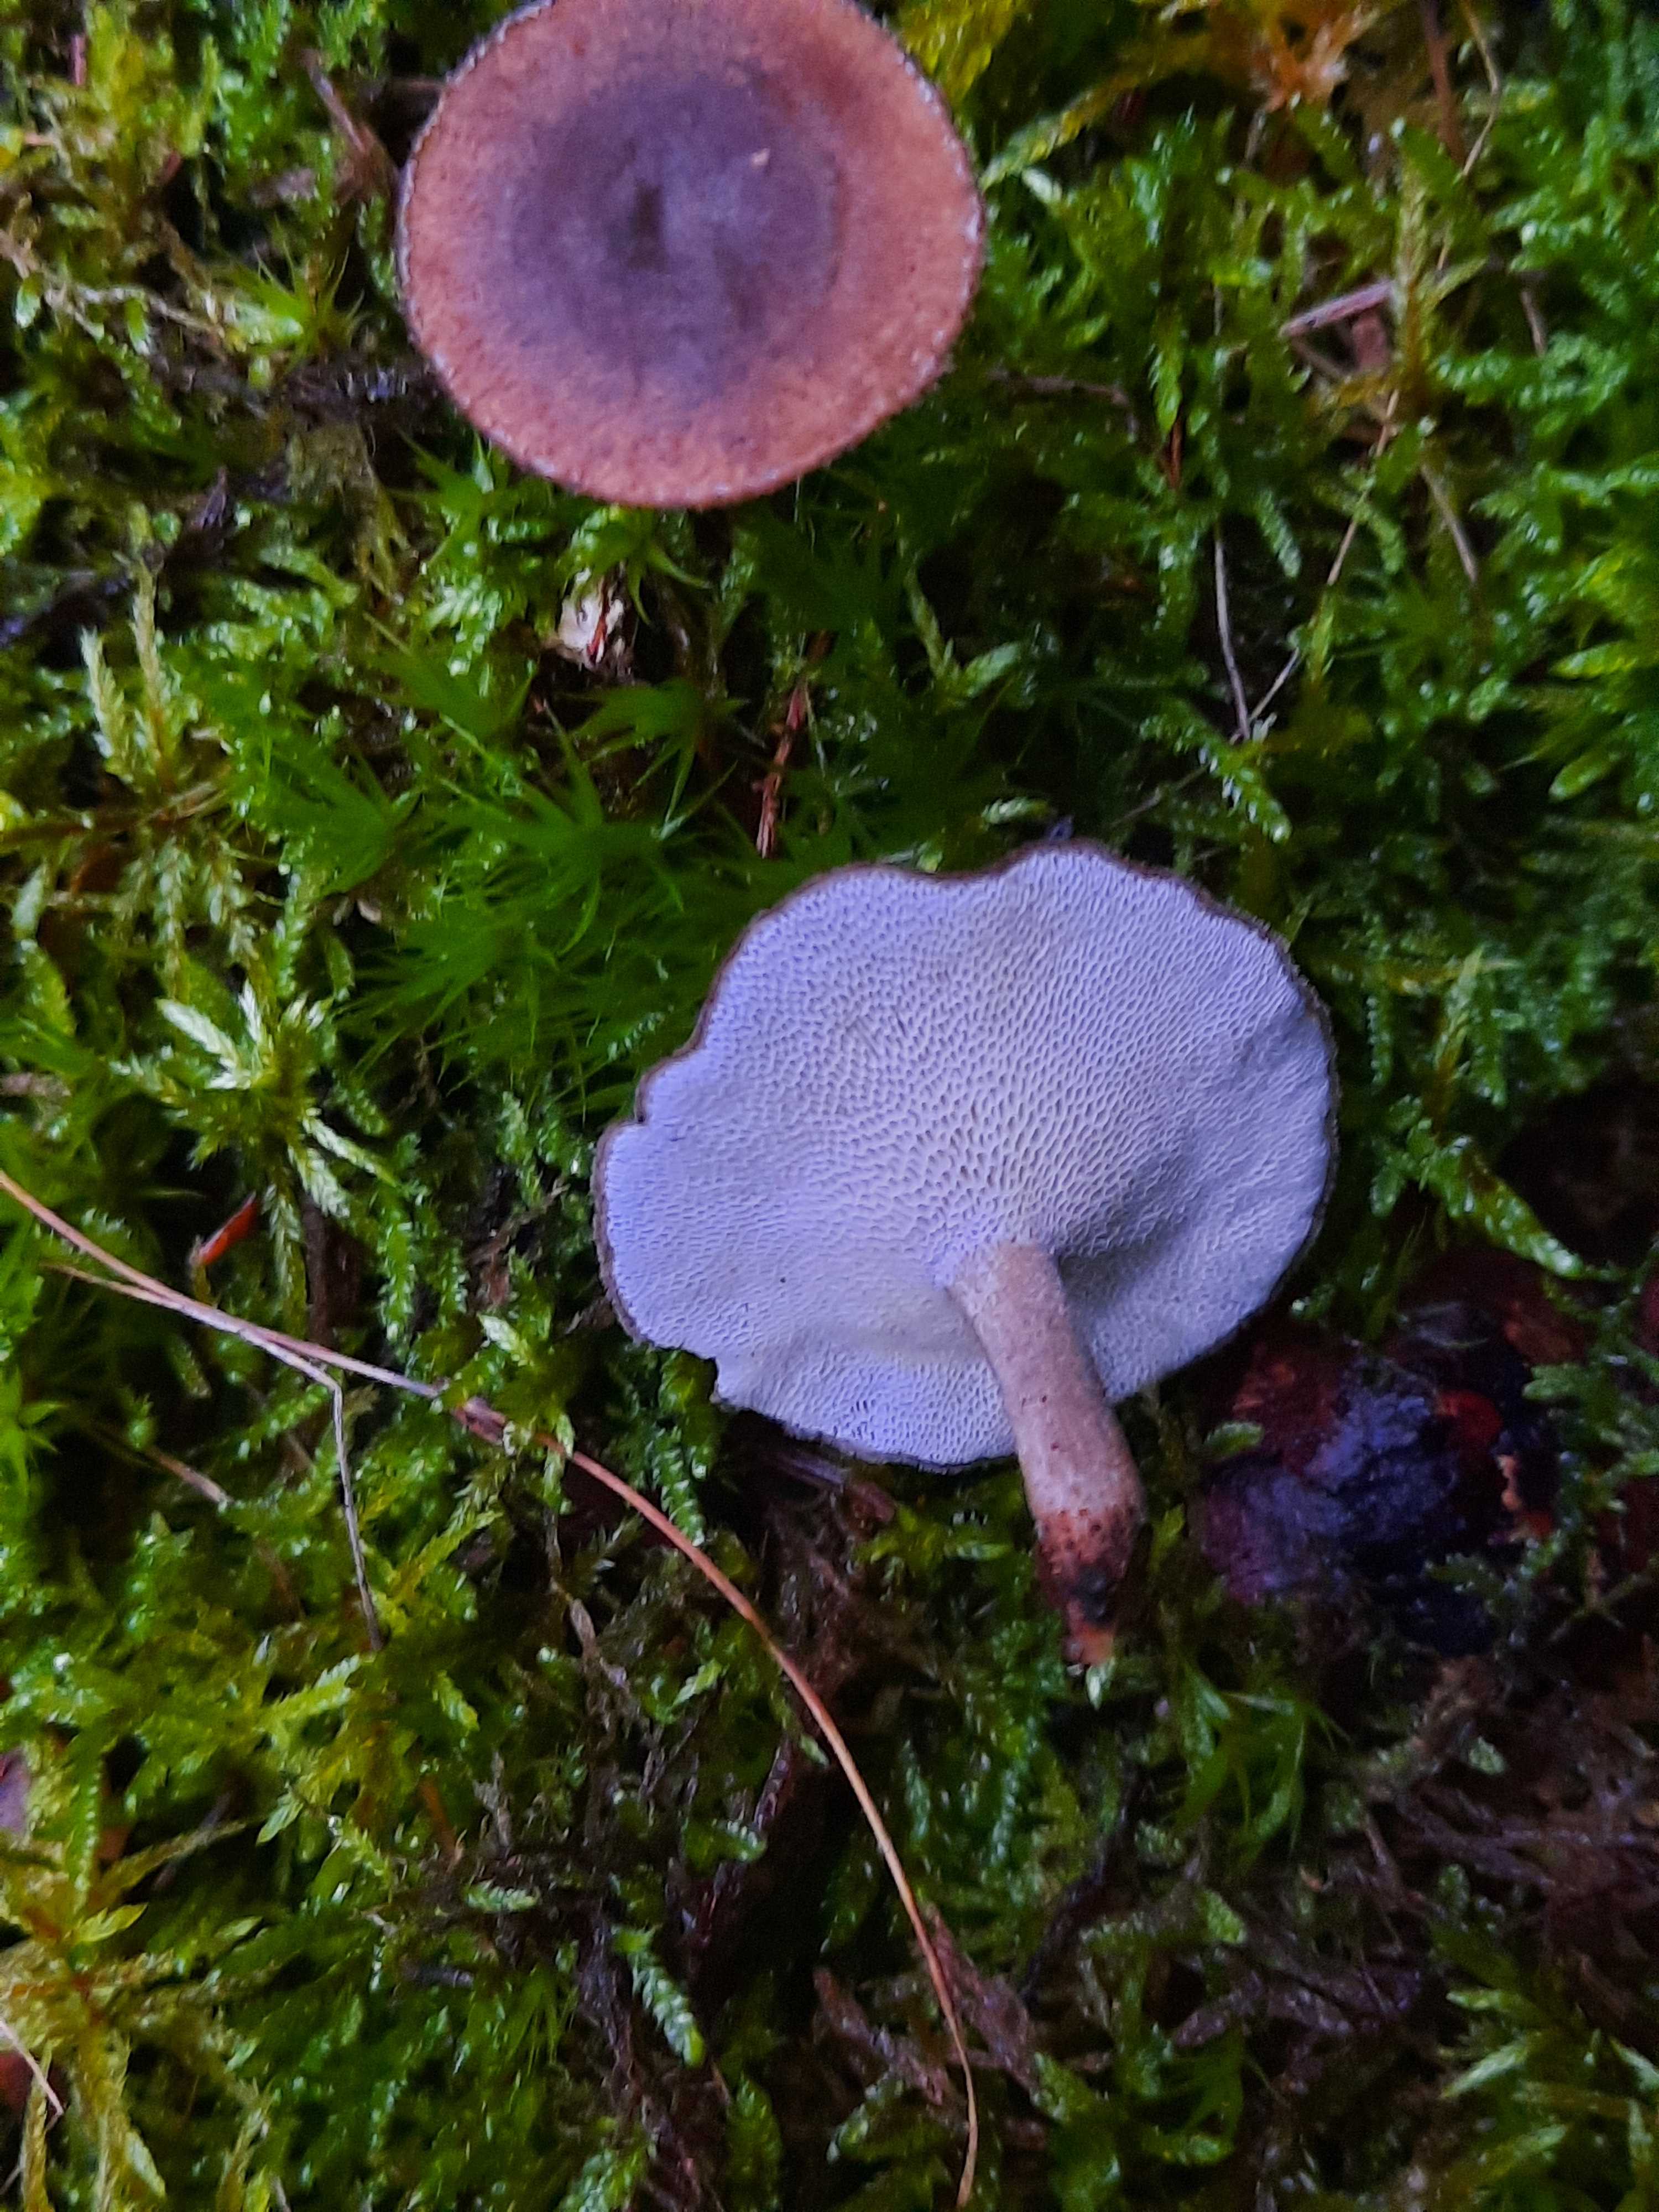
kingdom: Fungi
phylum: Basidiomycota
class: Agaricomycetes
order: Polyporales
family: Polyporaceae
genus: Lentinus
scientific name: Lentinus brumalis
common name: vinter-stilkporesvamp
